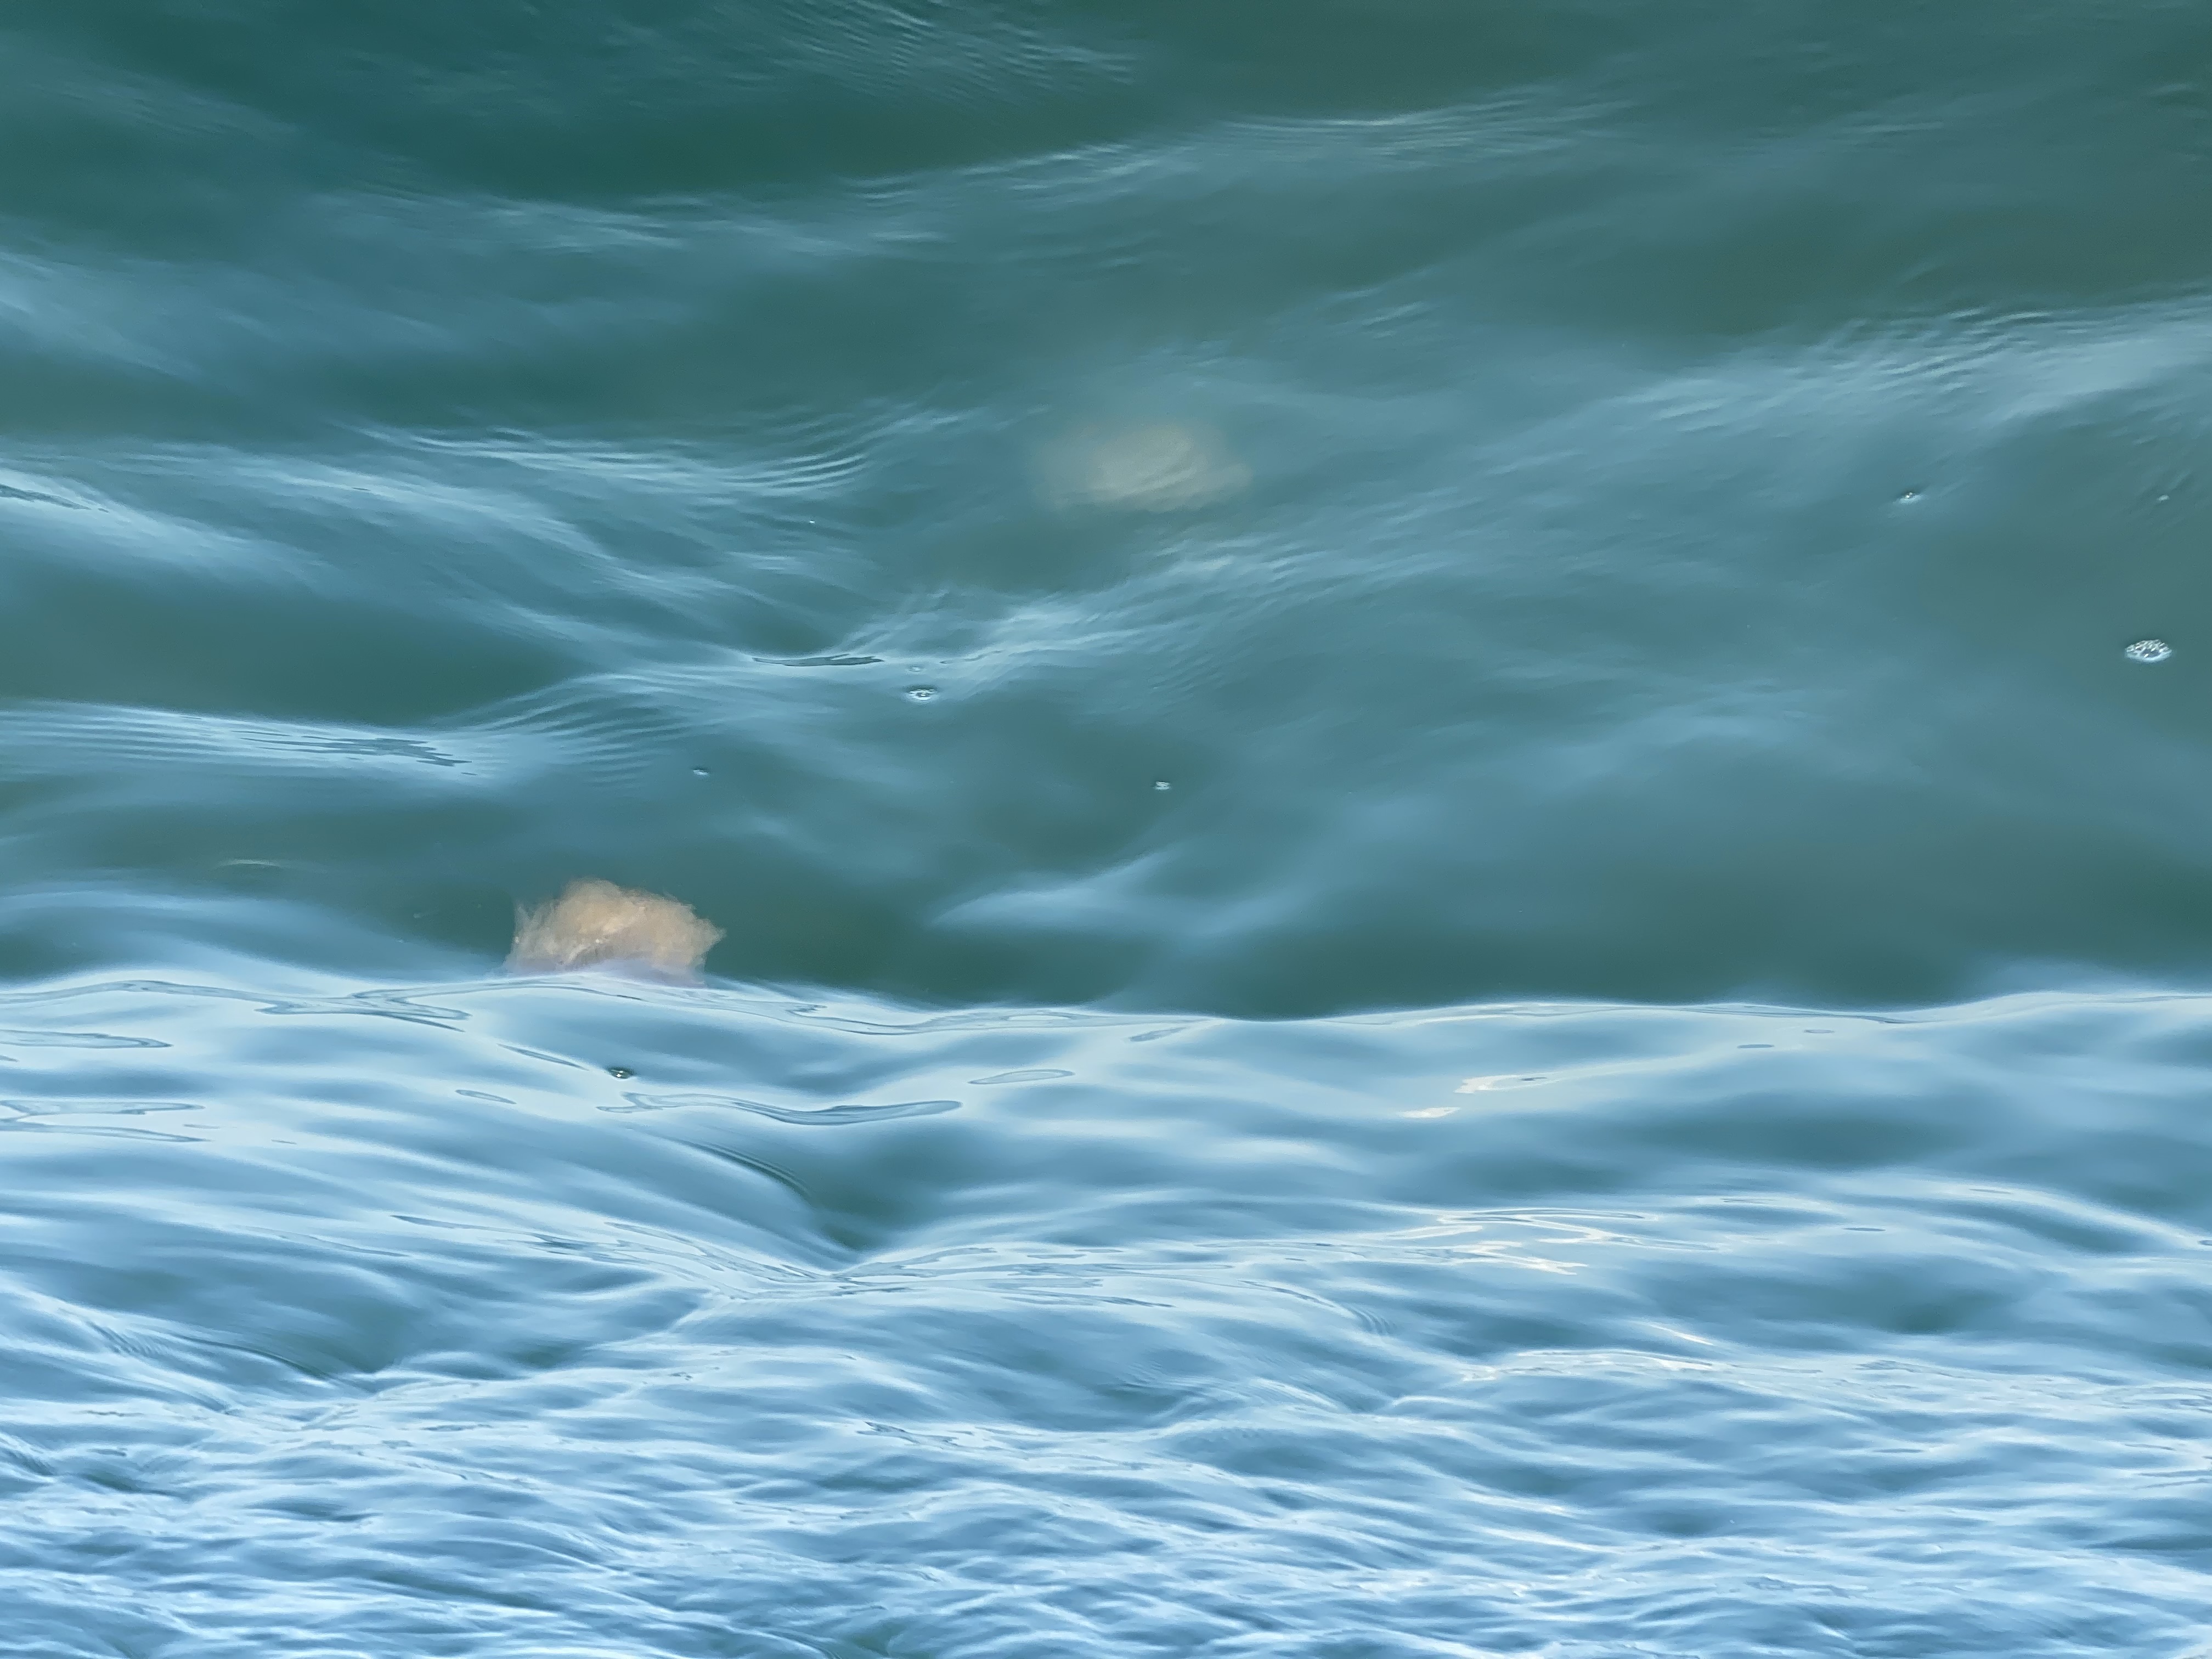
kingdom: Animalia
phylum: Cnidaria
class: Scyphozoa
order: Semaeostomeae
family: Cyaneidae
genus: Cyanea
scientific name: Cyanea nozakii
